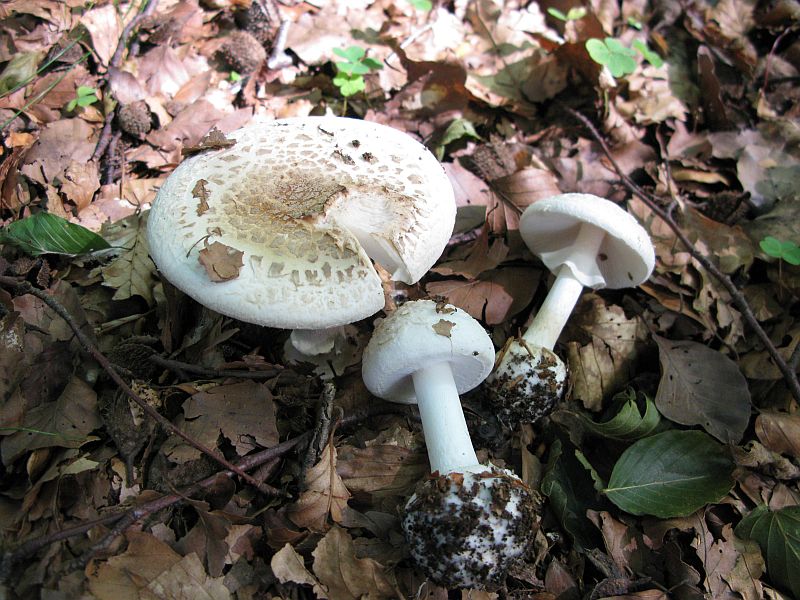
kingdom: Fungi
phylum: Basidiomycota
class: Agaricomycetes
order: Agaricales
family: Amanitaceae
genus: Amanita
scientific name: Amanita citrina
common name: False death-cap
